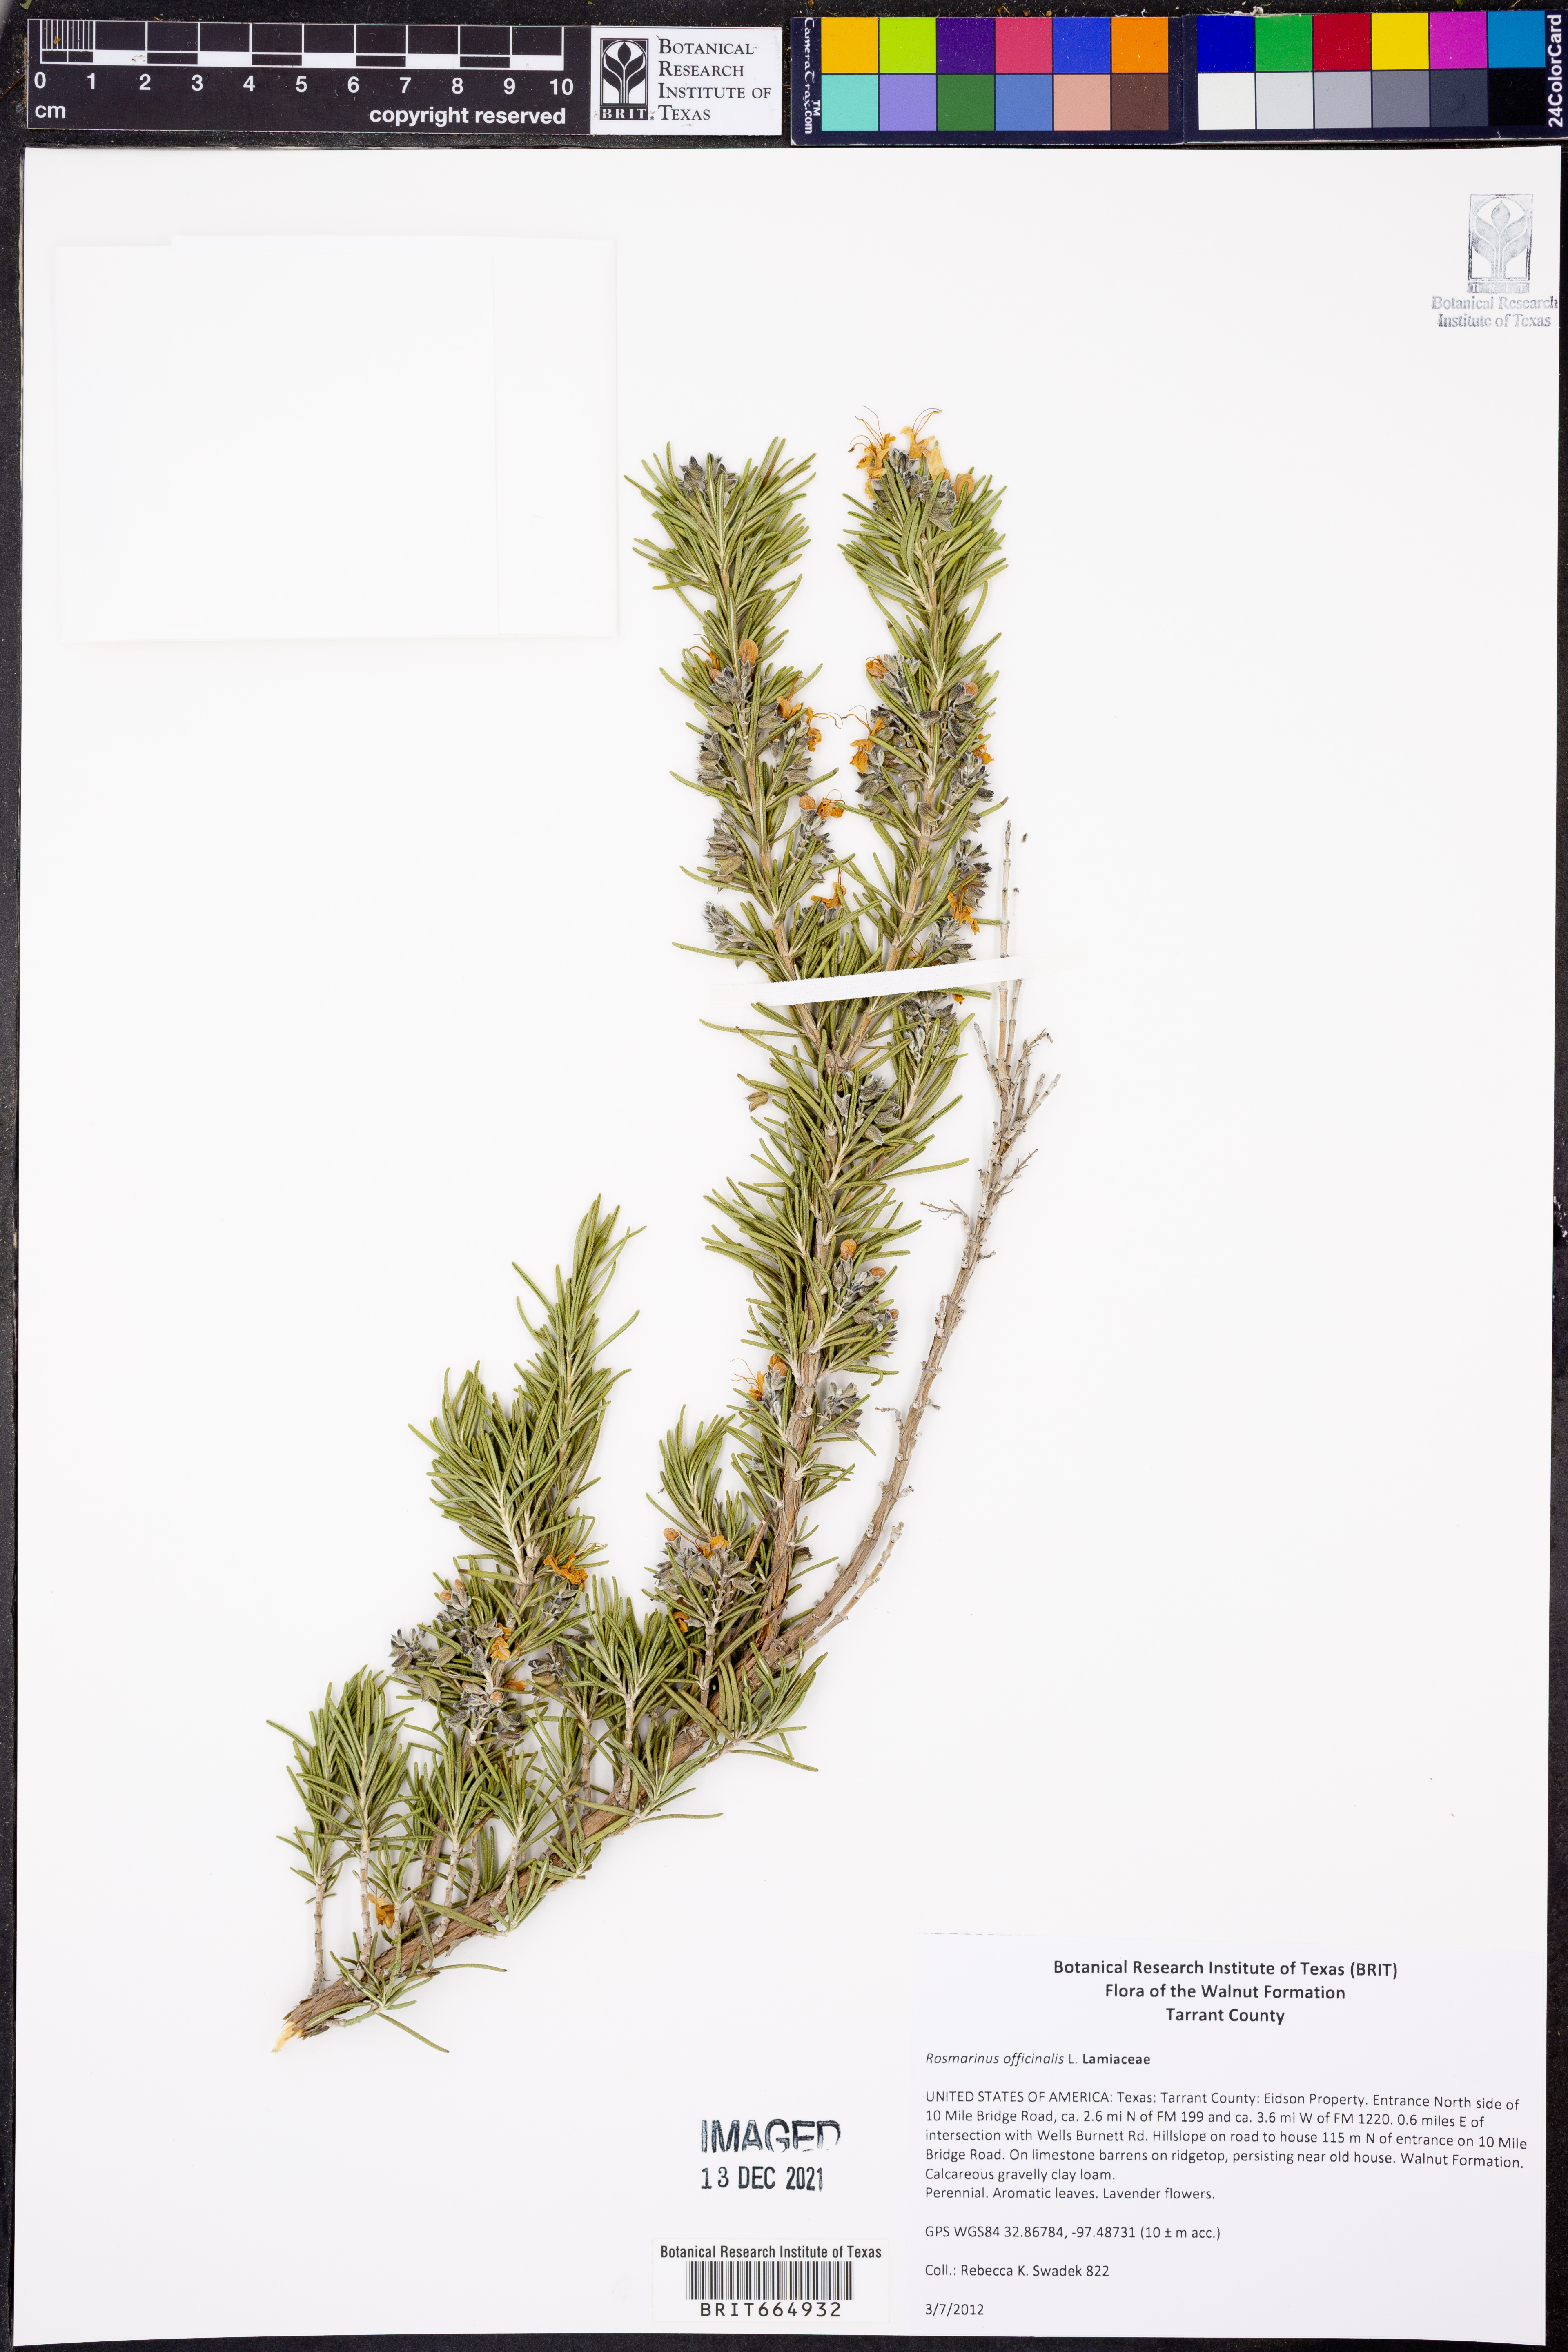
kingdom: Plantae
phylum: Tracheophyta
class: Magnoliopsida
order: Lamiales
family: Lamiaceae
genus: Salvia
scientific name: Salvia rosmarinus
